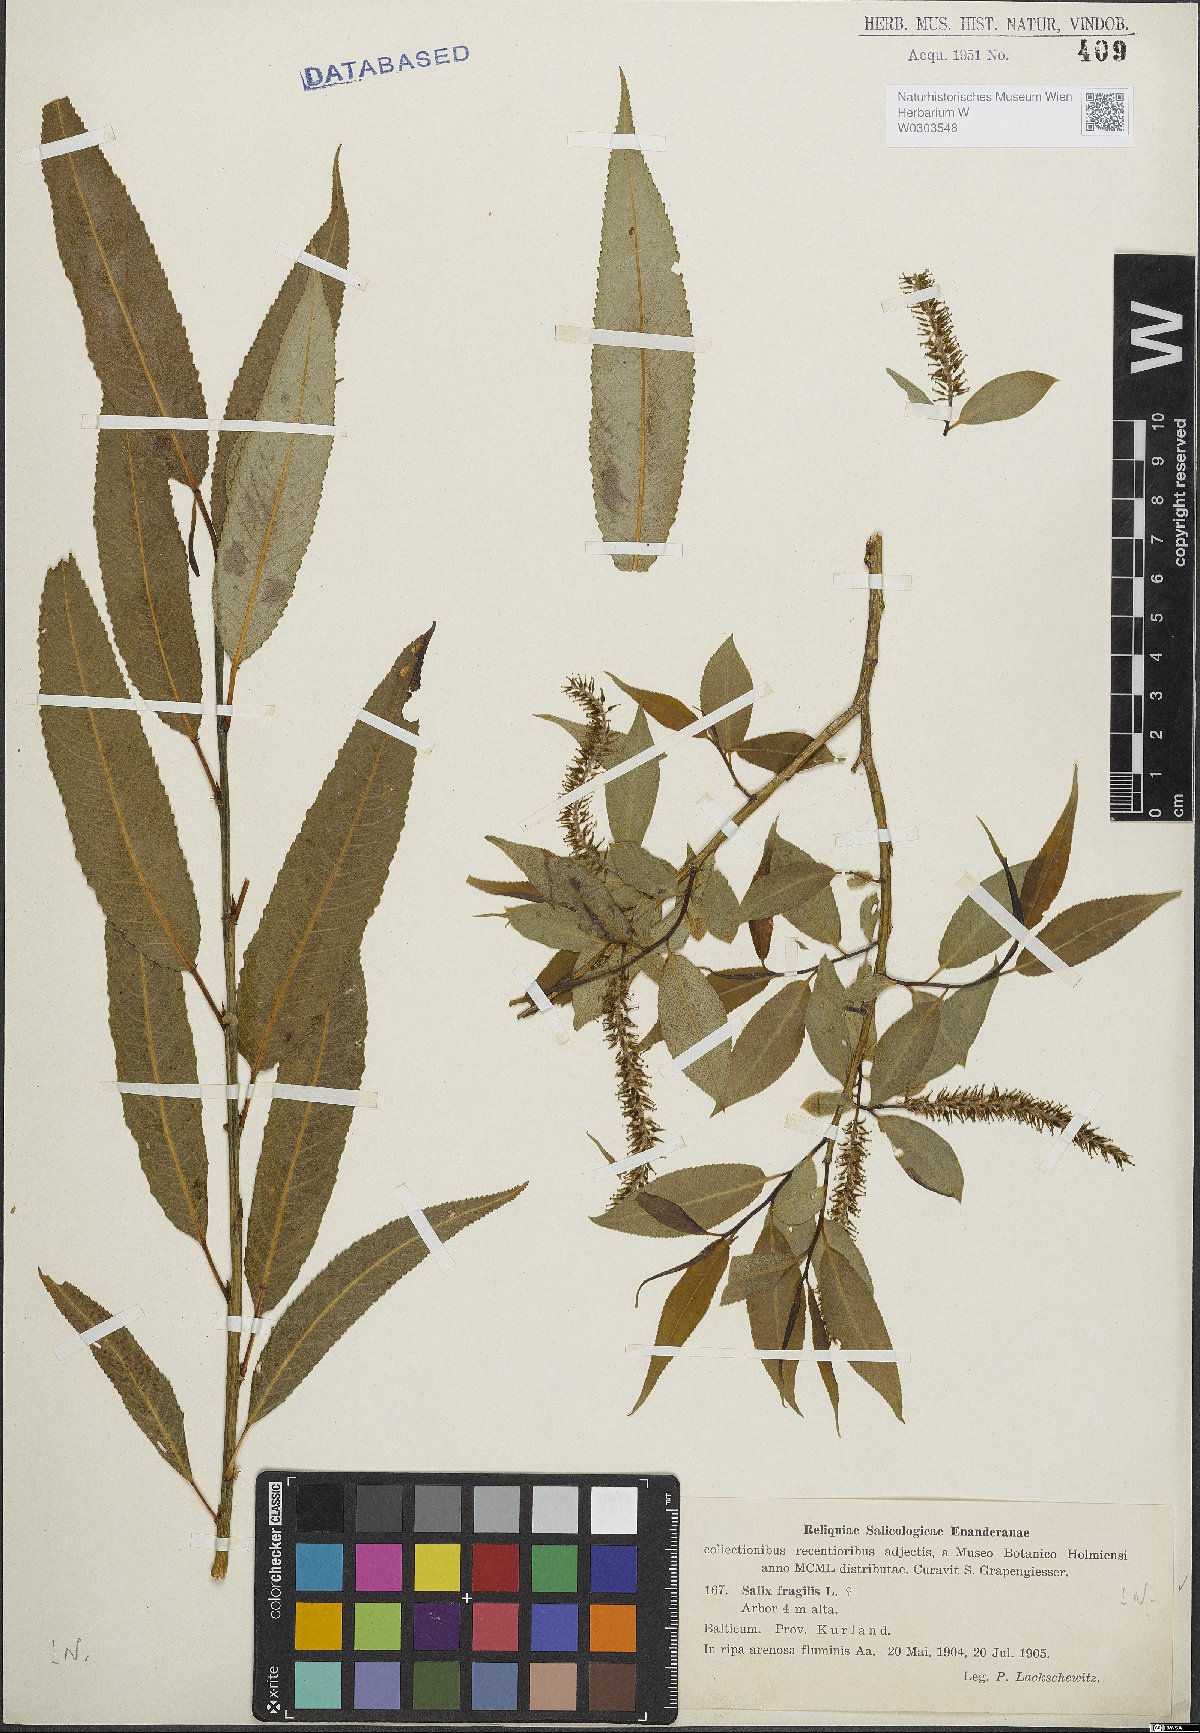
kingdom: Plantae
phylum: Tracheophyta
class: Magnoliopsida
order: Malpighiales
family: Salicaceae
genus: Salix
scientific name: Salix fragilis
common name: Crack willow
